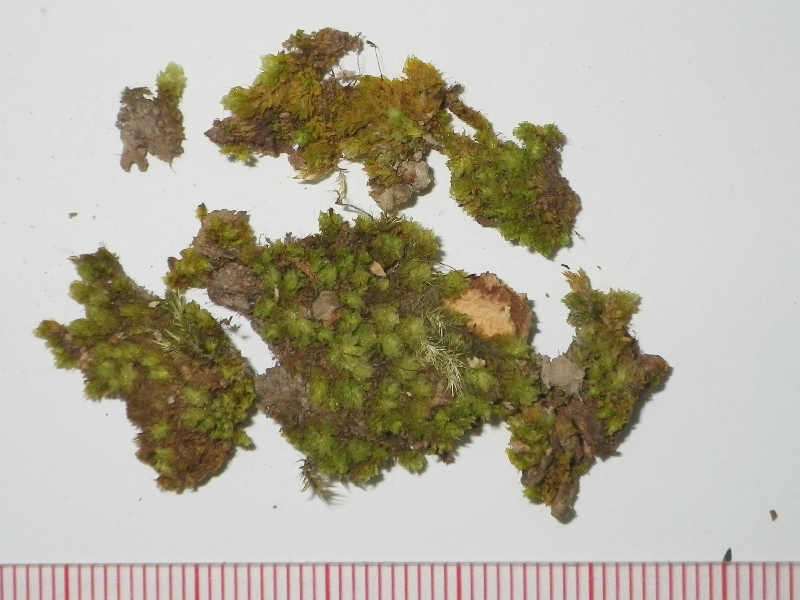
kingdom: Plantae
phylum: Bryophyta
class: Bryopsida
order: Hookeriales
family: Daltoniaceae
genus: Distichophyllum
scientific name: Distichophyllum cuspidatum
